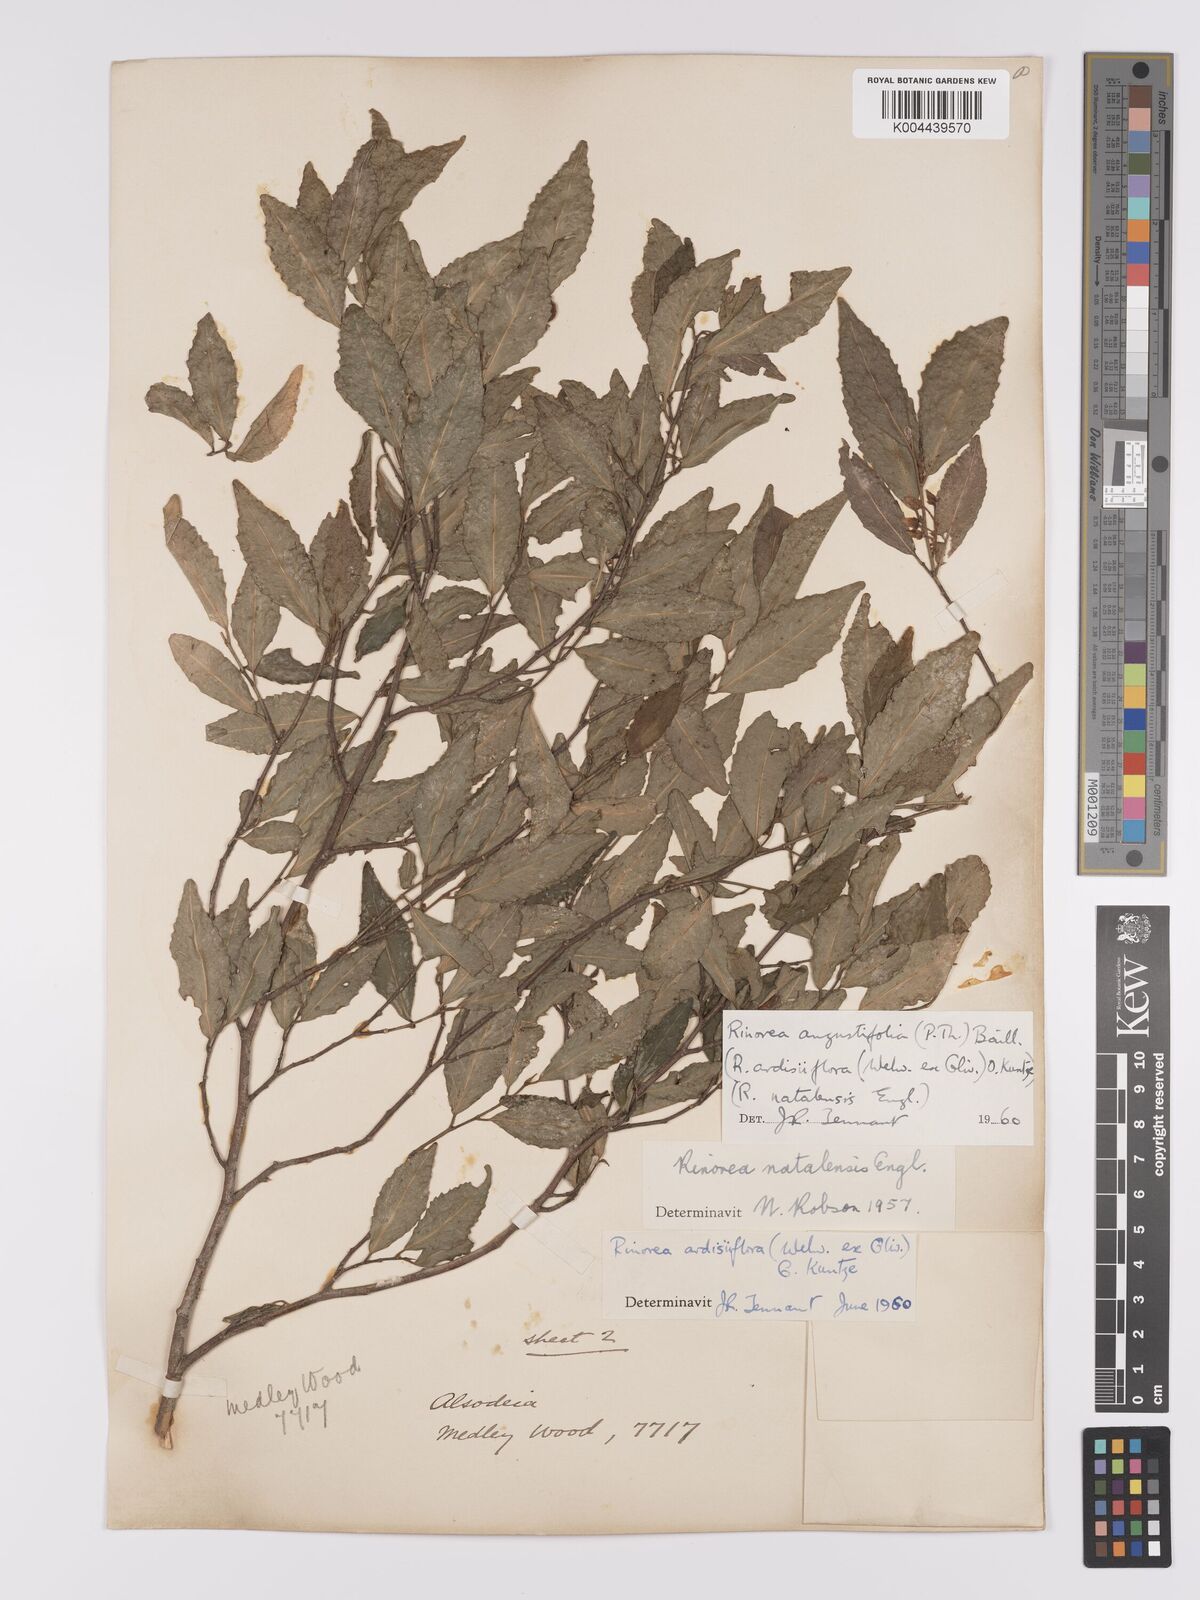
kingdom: Plantae
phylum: Tracheophyta
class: Magnoliopsida
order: Malpighiales
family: Violaceae
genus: Rinorea
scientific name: Rinorea angustifolia
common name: White violet-bush
